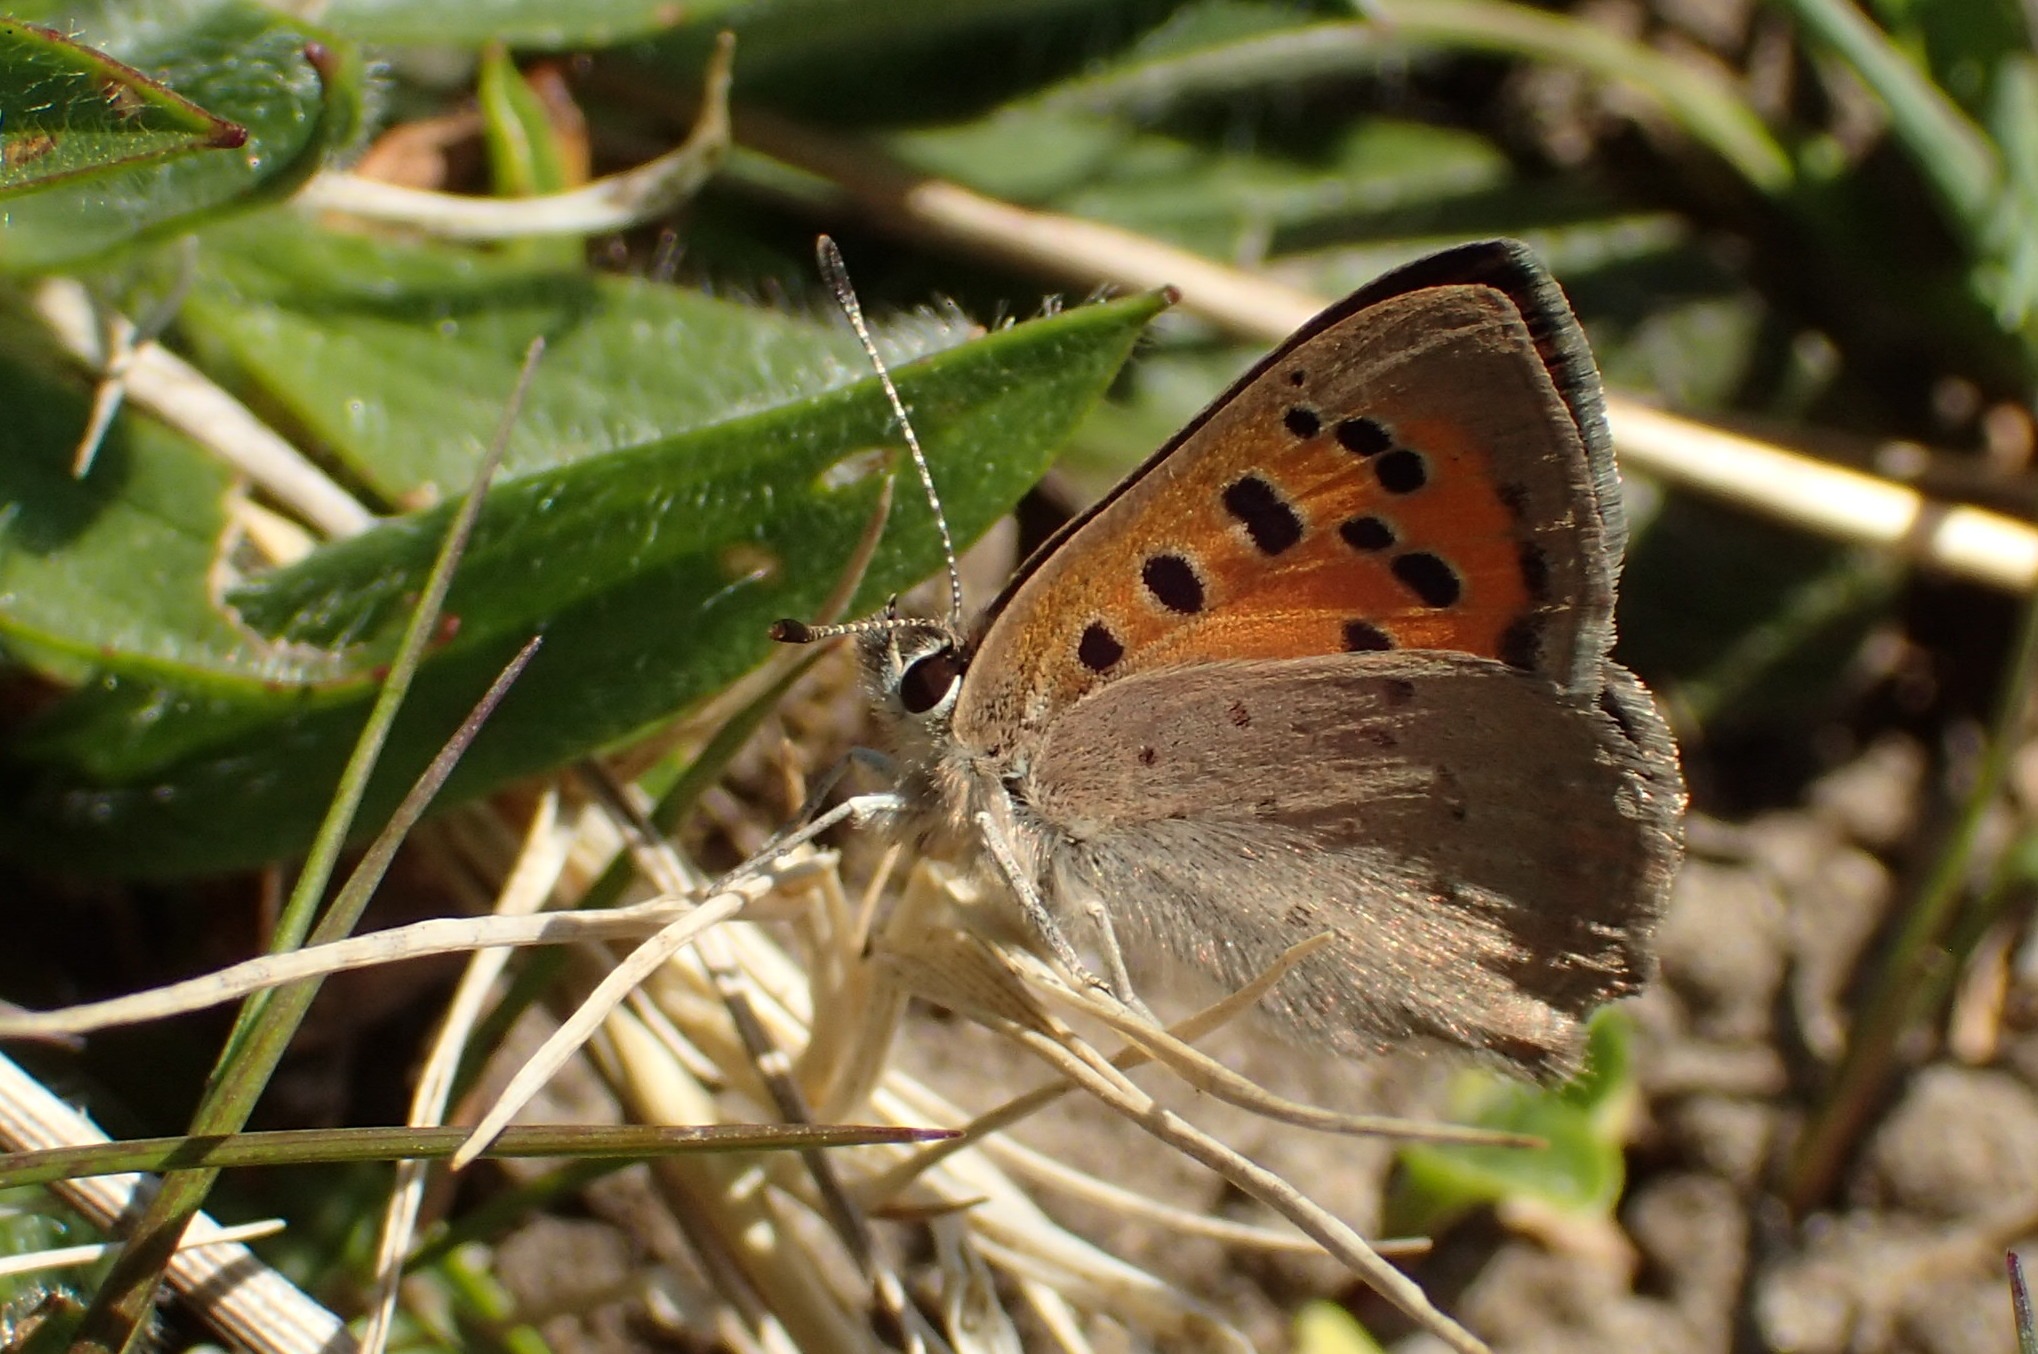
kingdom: Animalia
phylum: Arthropoda
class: Insecta
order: Lepidoptera
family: Lycaenidae
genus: Lycaena
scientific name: Lycaena phlaeas
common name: Lille ildfugl
